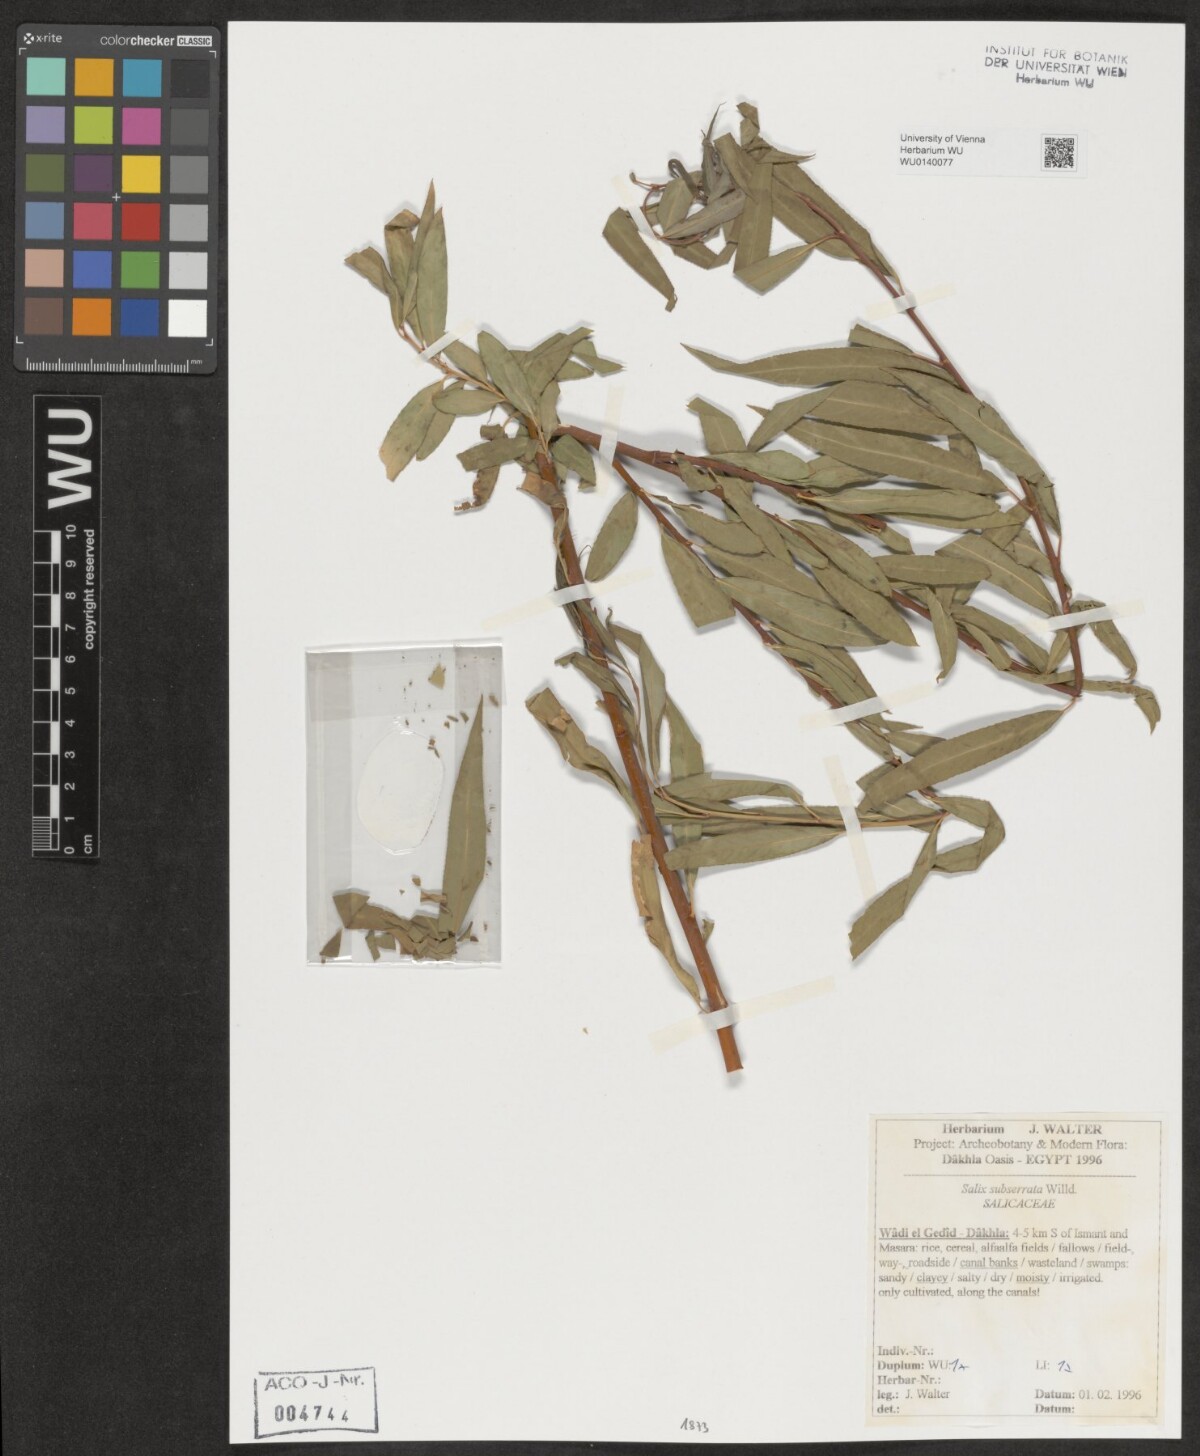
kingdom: Plantae
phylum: Tracheophyta
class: Magnoliopsida
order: Malpighiales
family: Salicaceae
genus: Salix
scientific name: Salix mucronata
